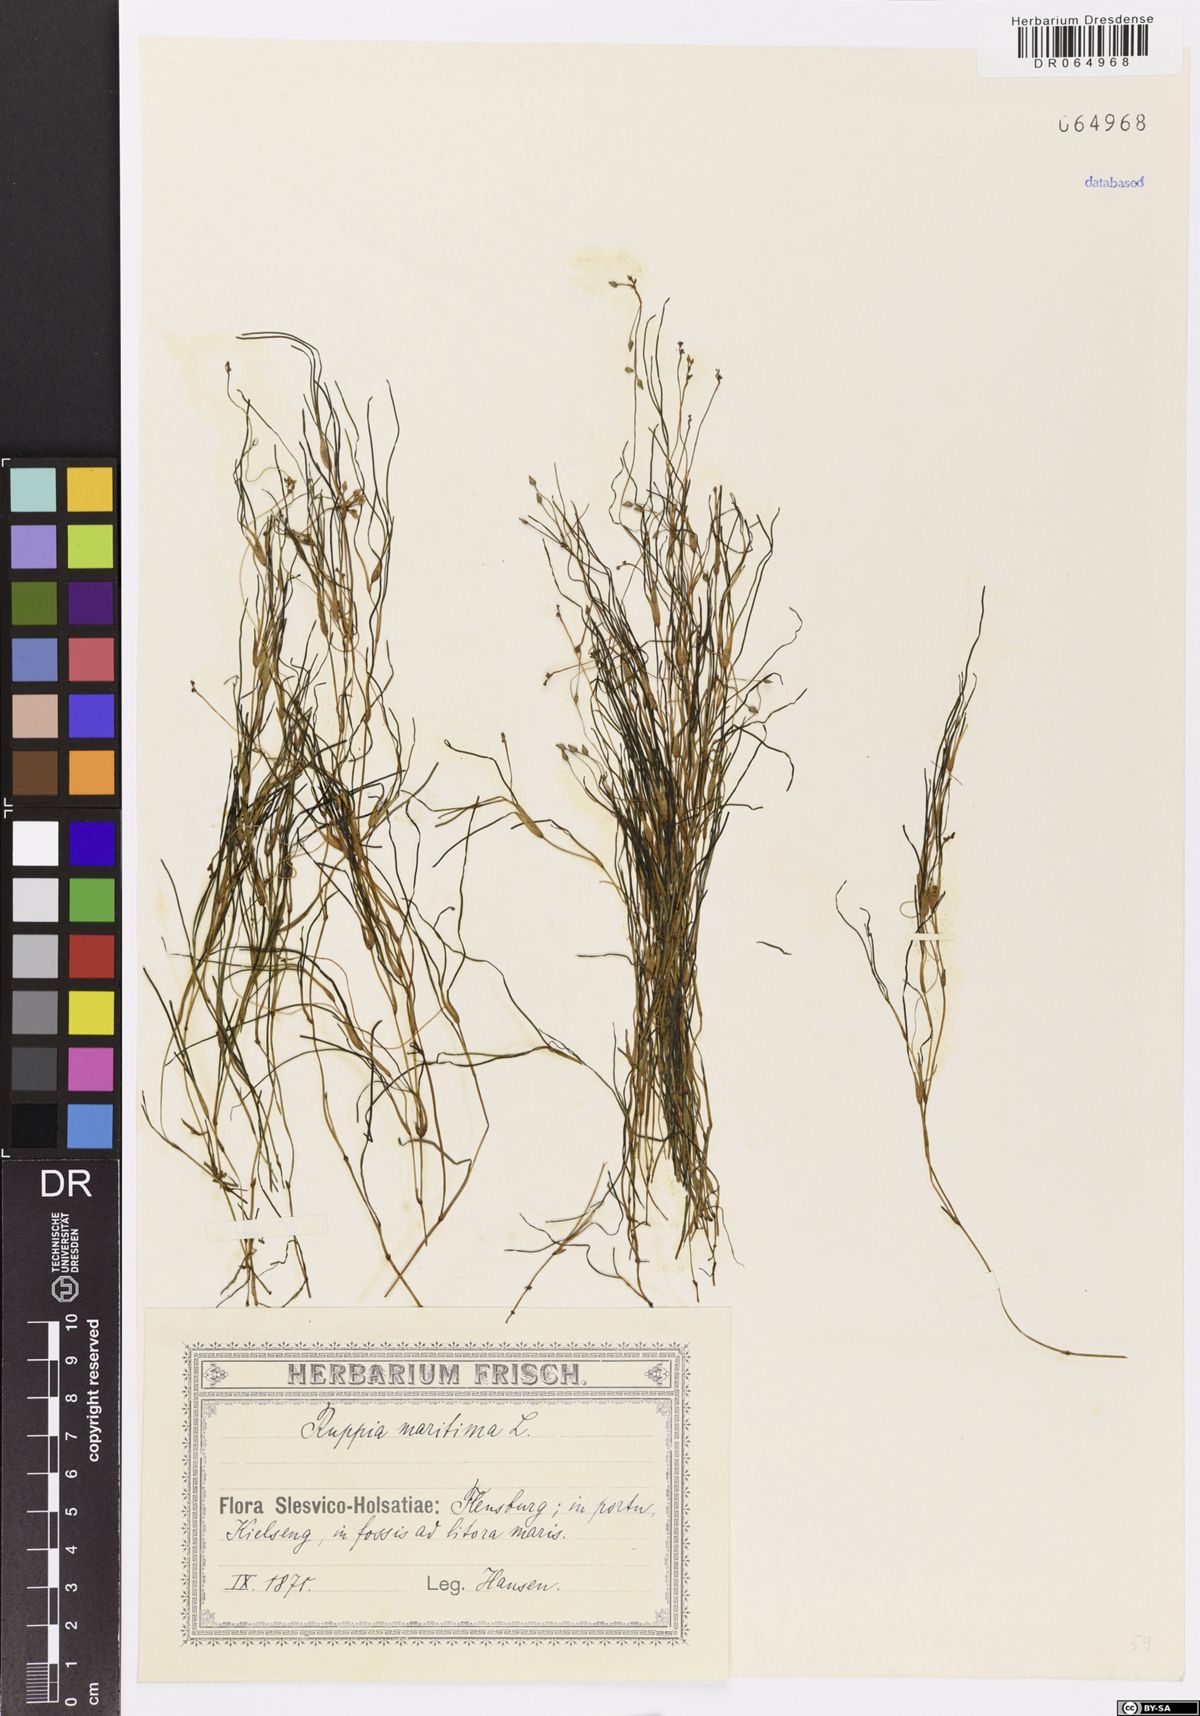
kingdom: Plantae
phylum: Tracheophyta
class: Liliopsida
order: Alismatales
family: Ruppiaceae
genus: Ruppia
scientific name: Ruppia maritima
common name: Beaked tasselweed
